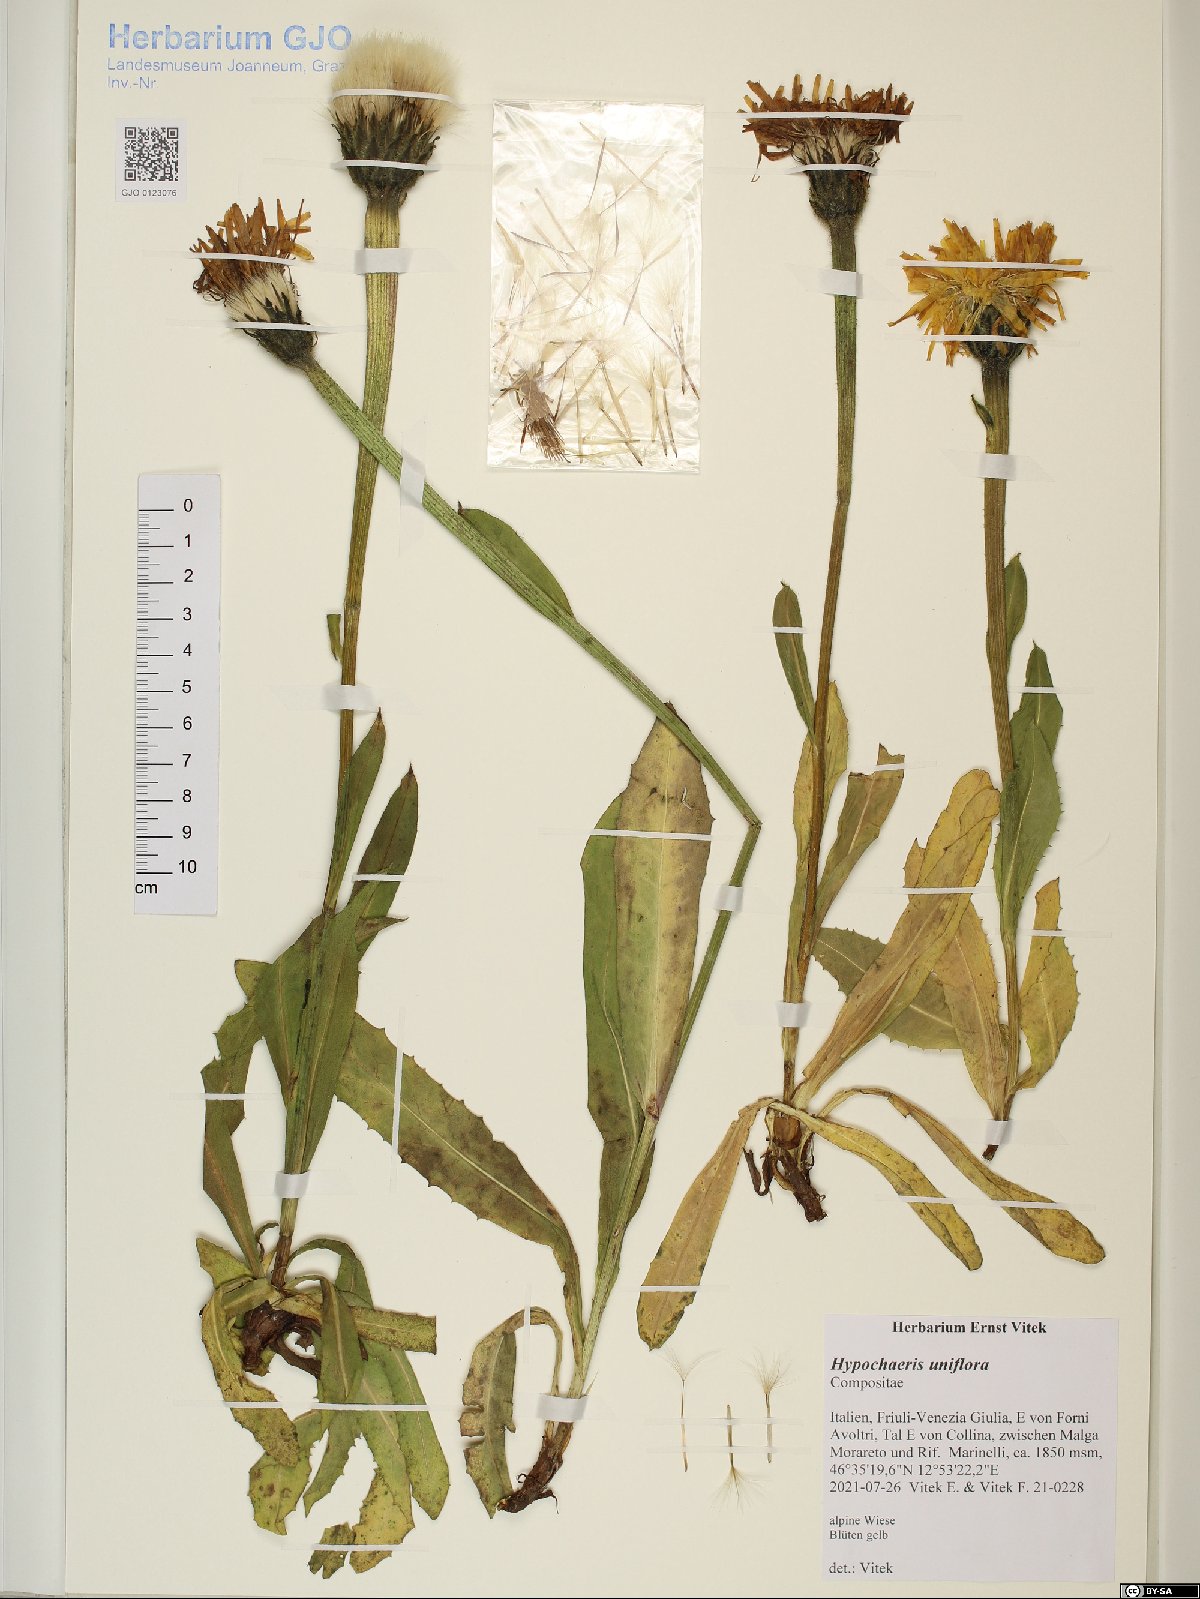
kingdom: Plantae
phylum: Tracheophyta
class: Magnoliopsida
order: Asterales
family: Asteraceae
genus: Trommsdorffia
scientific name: Trommsdorffia uniflora
